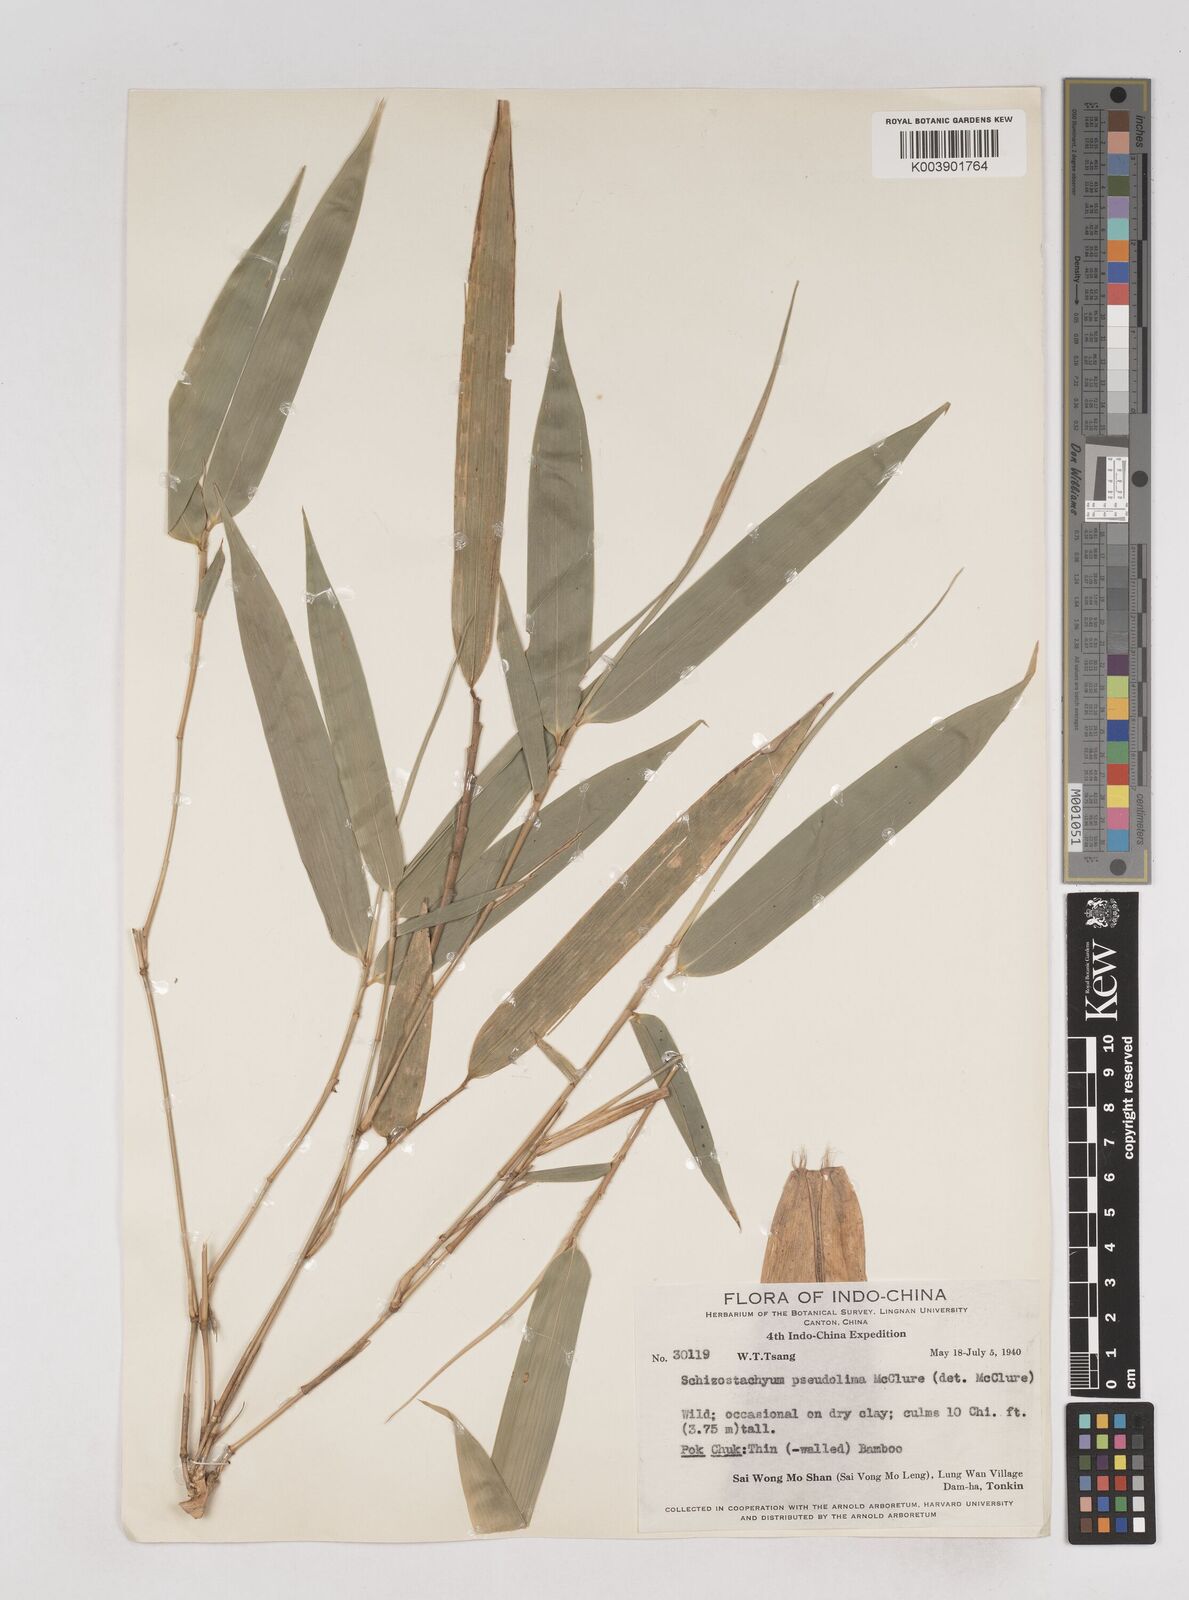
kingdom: Plantae
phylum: Tracheophyta
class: Liliopsida
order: Poales
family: Poaceae
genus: Schizostachyum
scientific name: Schizostachyum pseudolima
